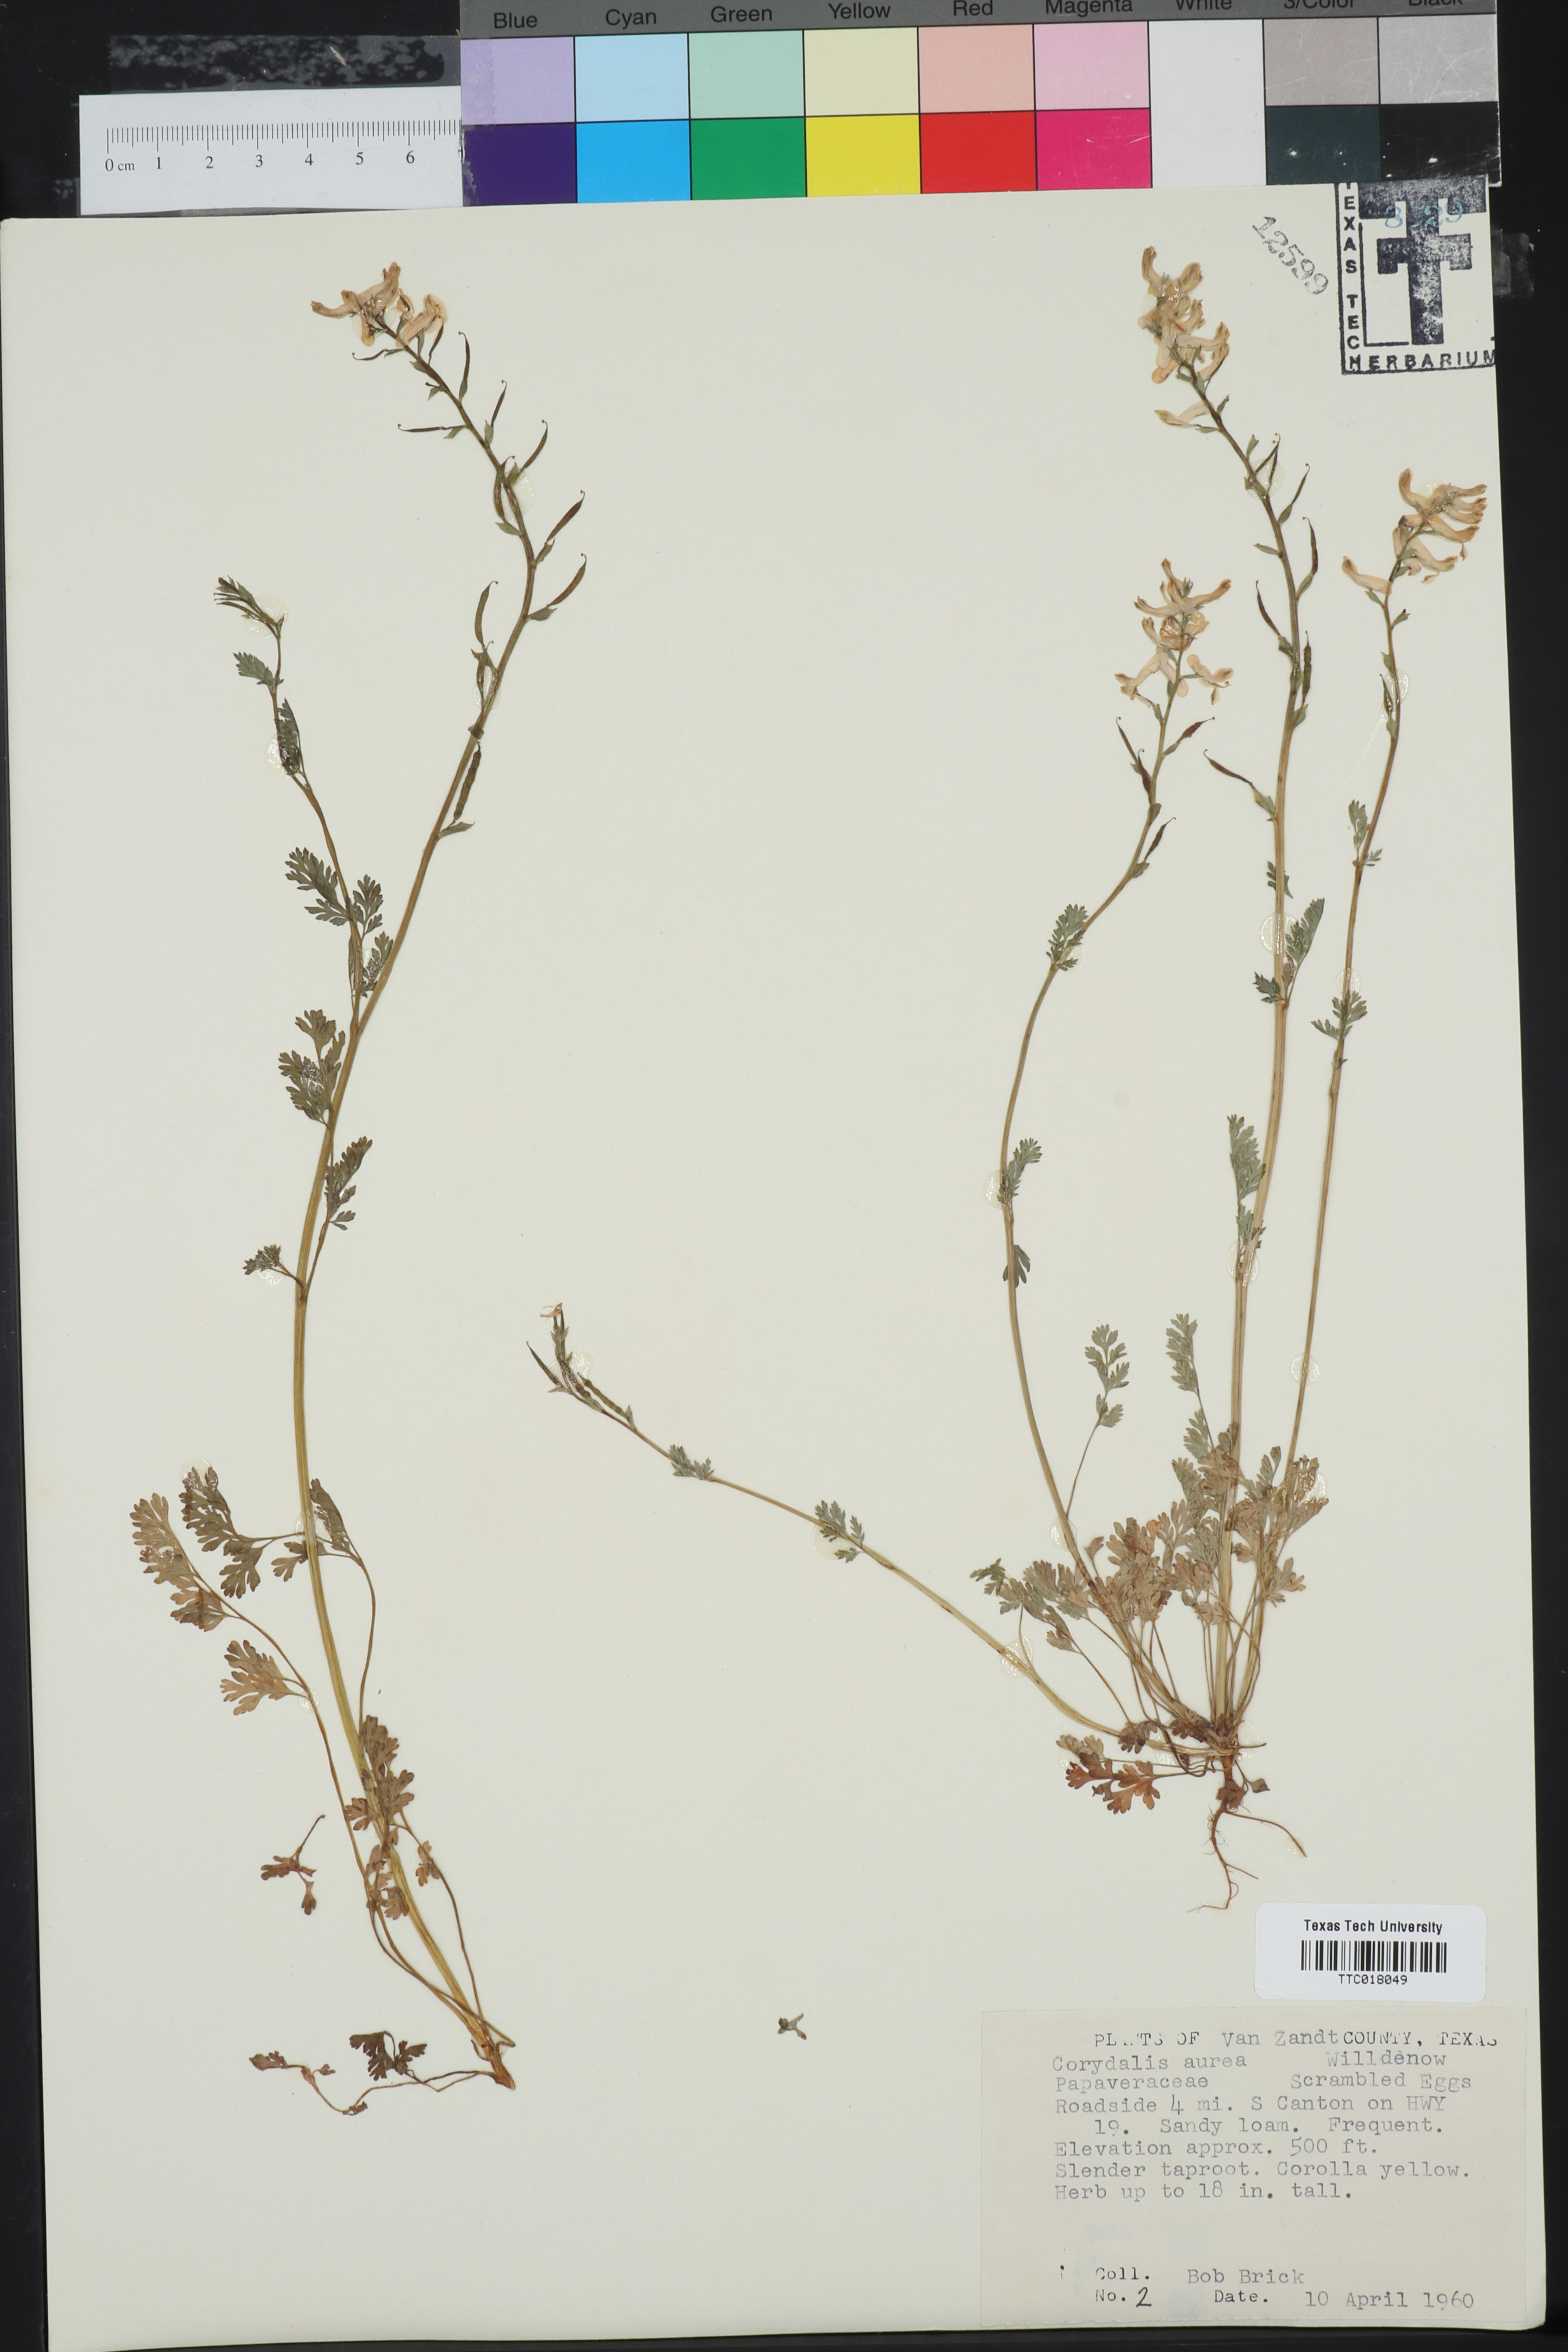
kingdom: Plantae
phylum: Tracheophyta
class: Magnoliopsida
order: Ranunculales
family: Papaveraceae
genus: Corydalis
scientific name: Corydalis aurea
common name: Golden corydalis
